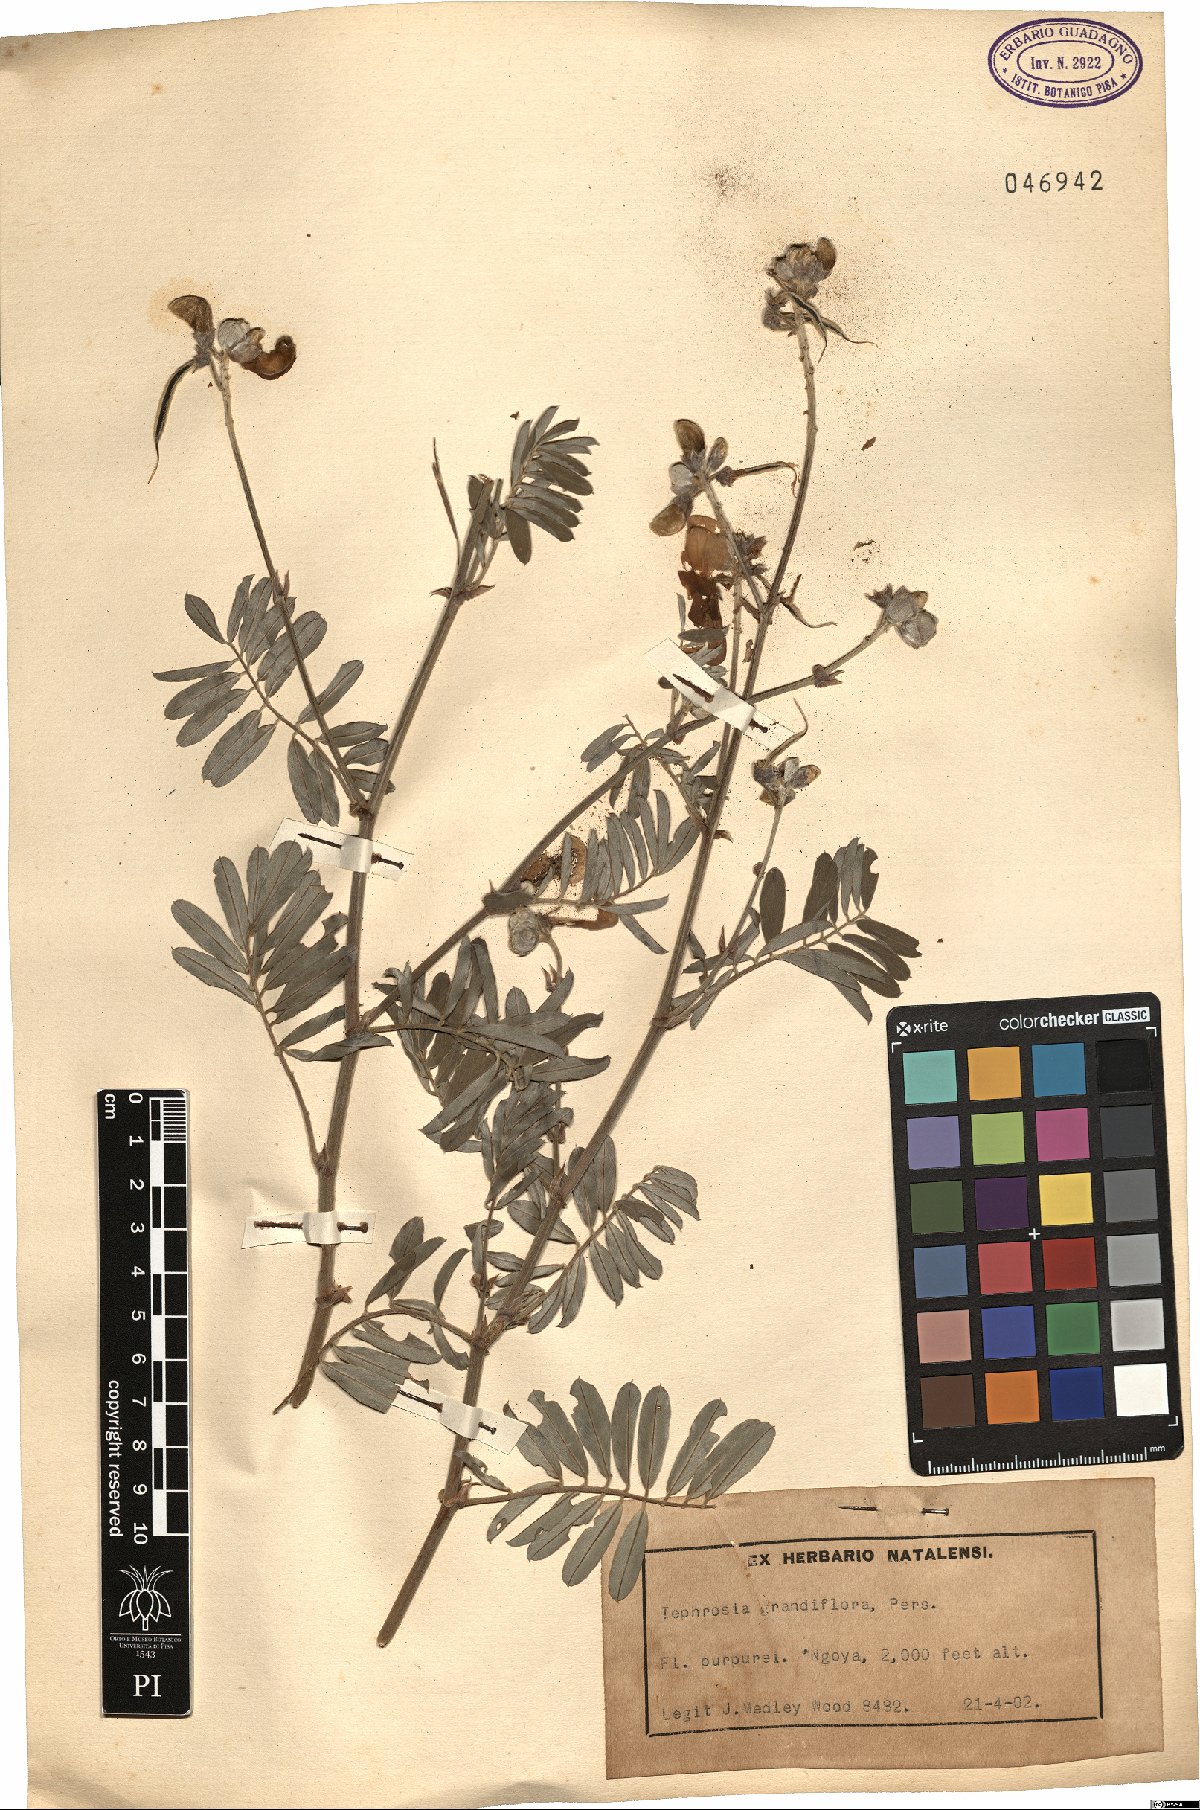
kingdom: Plantae
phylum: Tracheophyta
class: Magnoliopsida
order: Fabales
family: Fabaceae
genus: Tephrosia
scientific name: Tephrosia grandiflora
